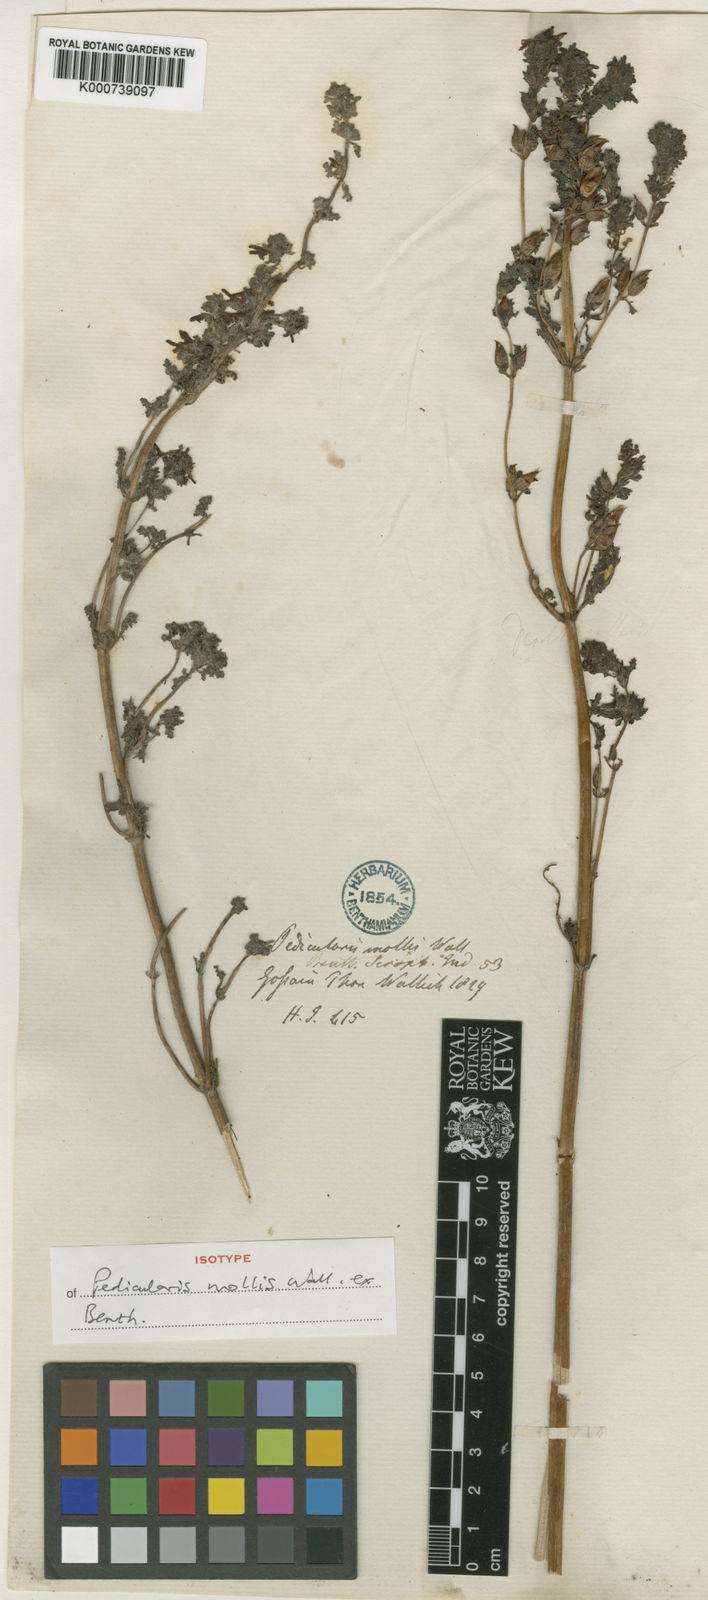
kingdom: Plantae
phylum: Tracheophyta
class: Magnoliopsida
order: Lamiales
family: Orobanchaceae
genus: Pedicularis
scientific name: Pedicularis
